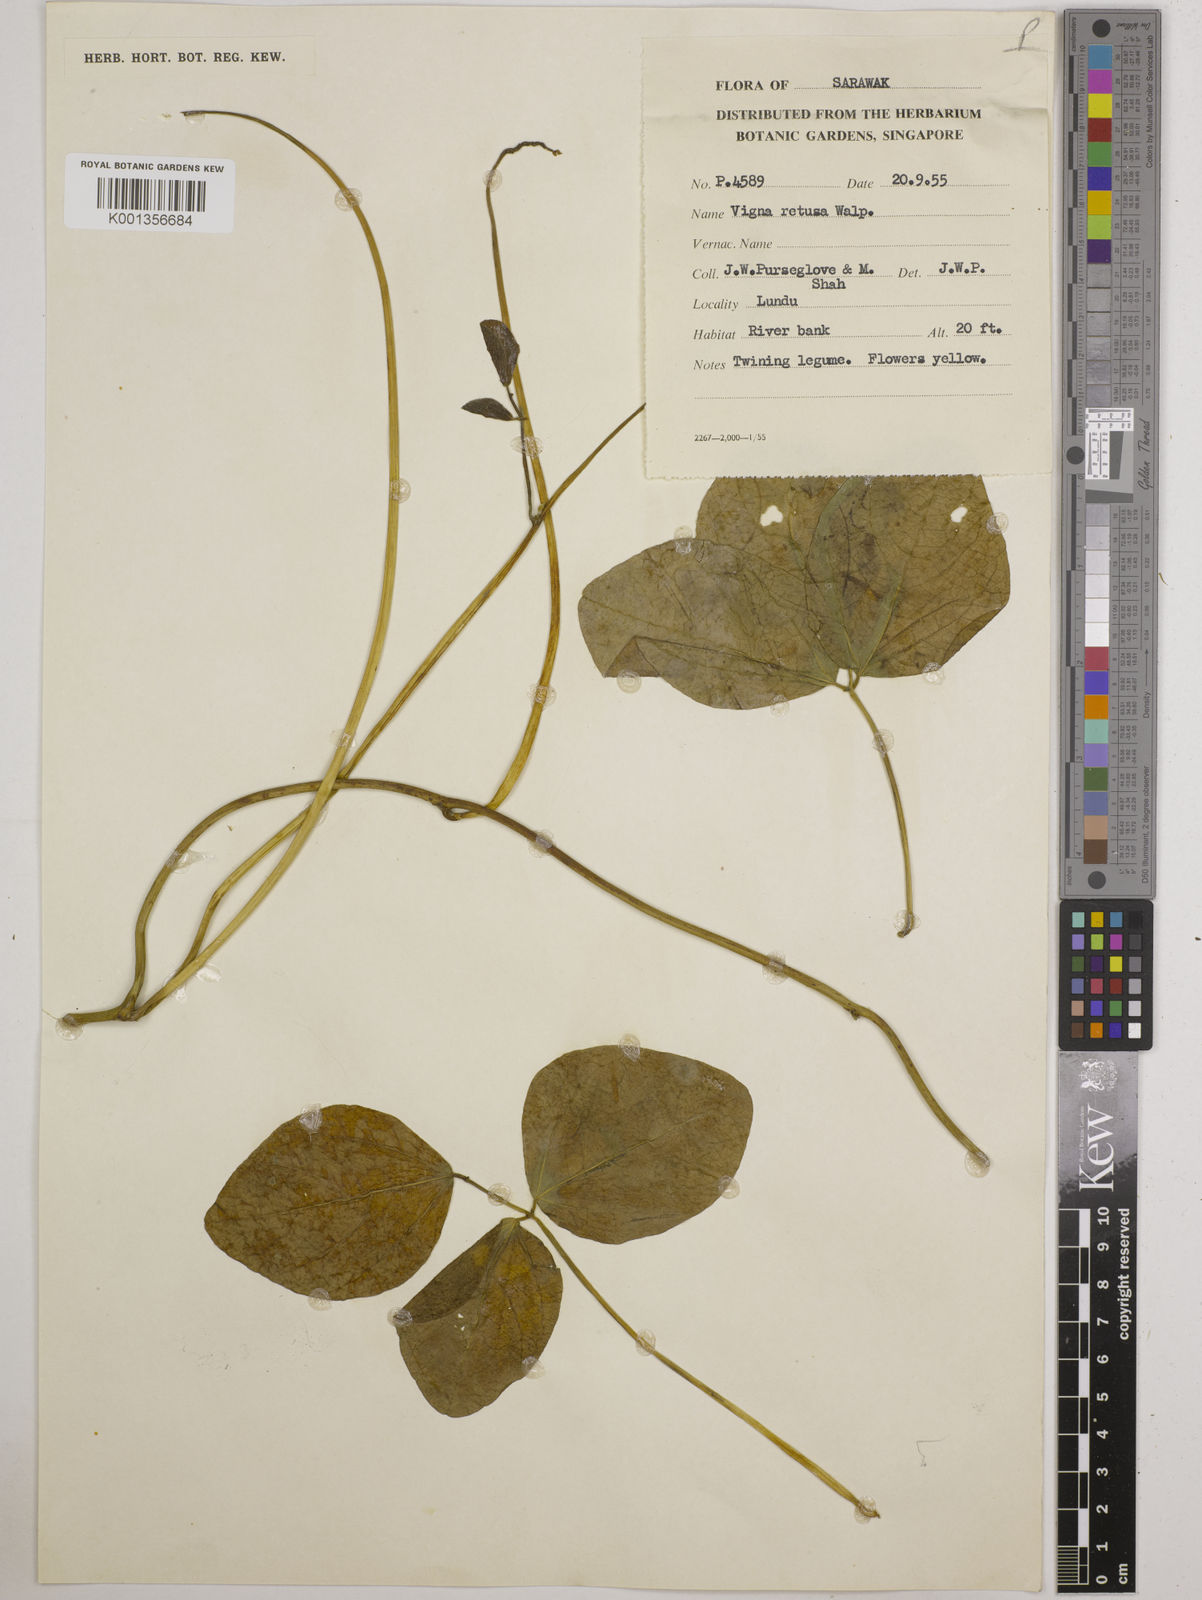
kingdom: Plantae
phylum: Tracheophyta
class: Magnoliopsida
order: Fabales
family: Fabaceae
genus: Vigna
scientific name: Vigna marina
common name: Dune-bean
